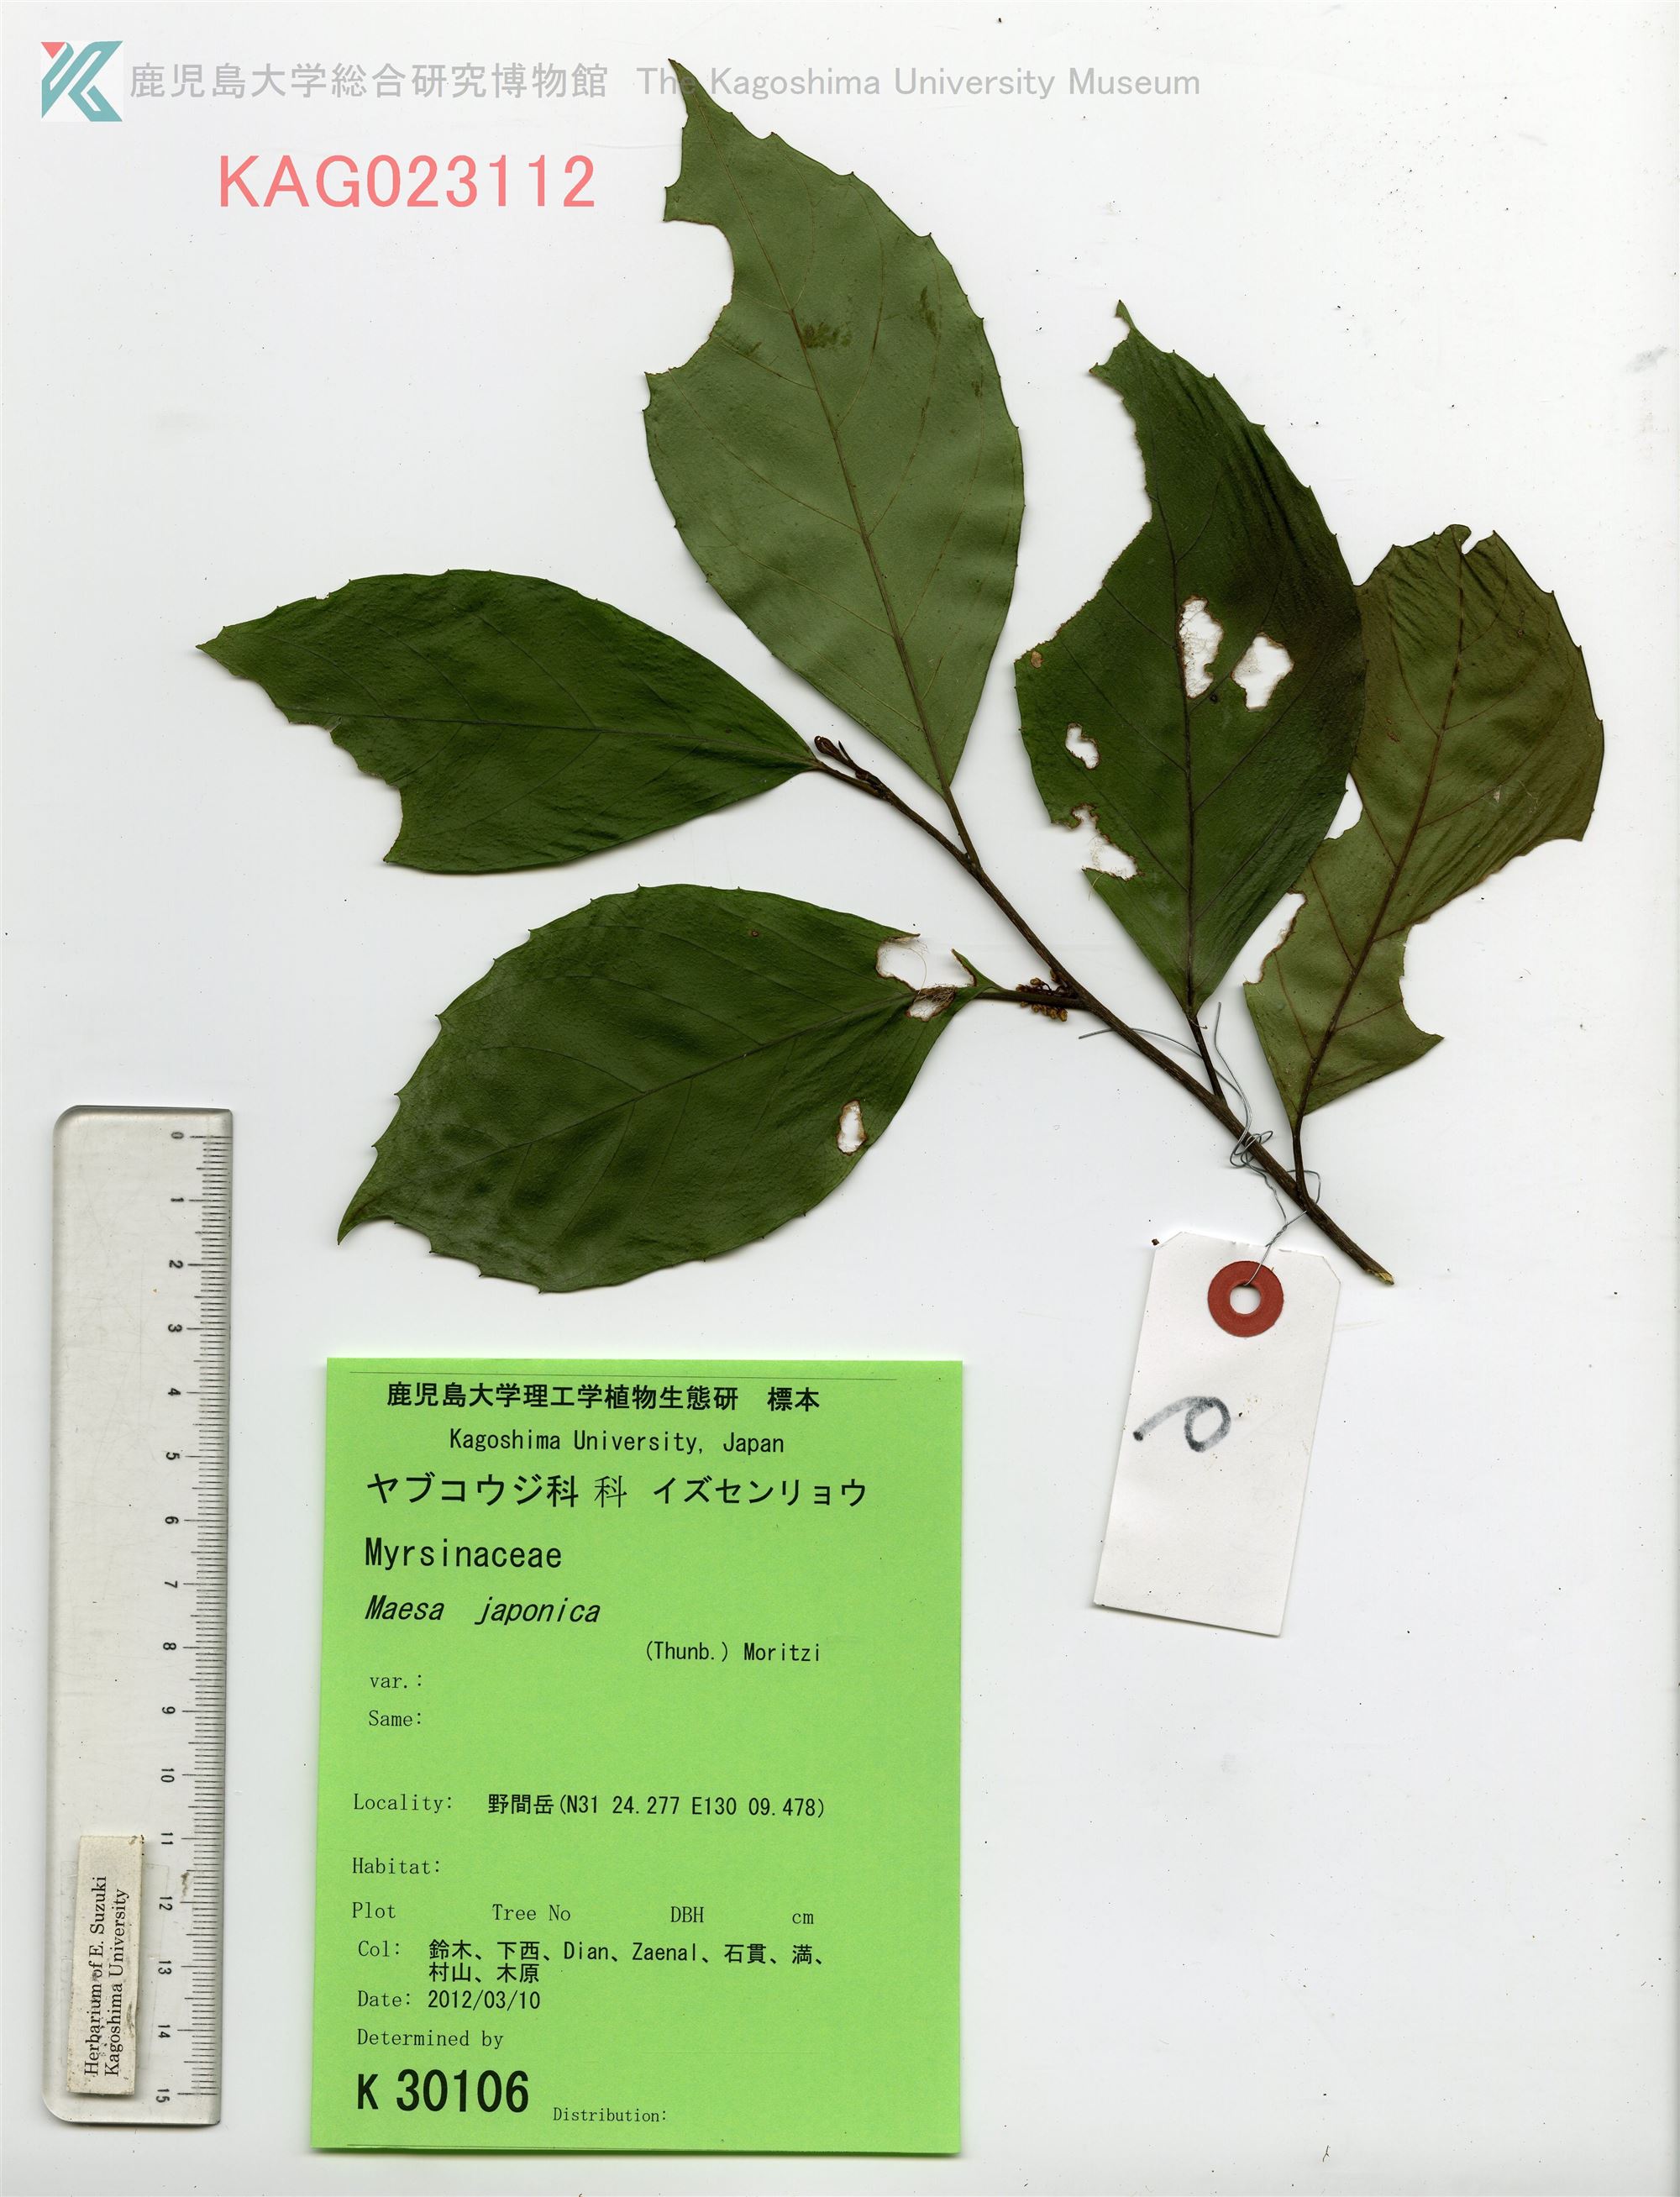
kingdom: Plantae
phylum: Tracheophyta
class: Magnoliopsida
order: Ericales
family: Primulaceae
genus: Maesa
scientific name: Maesa japonica
